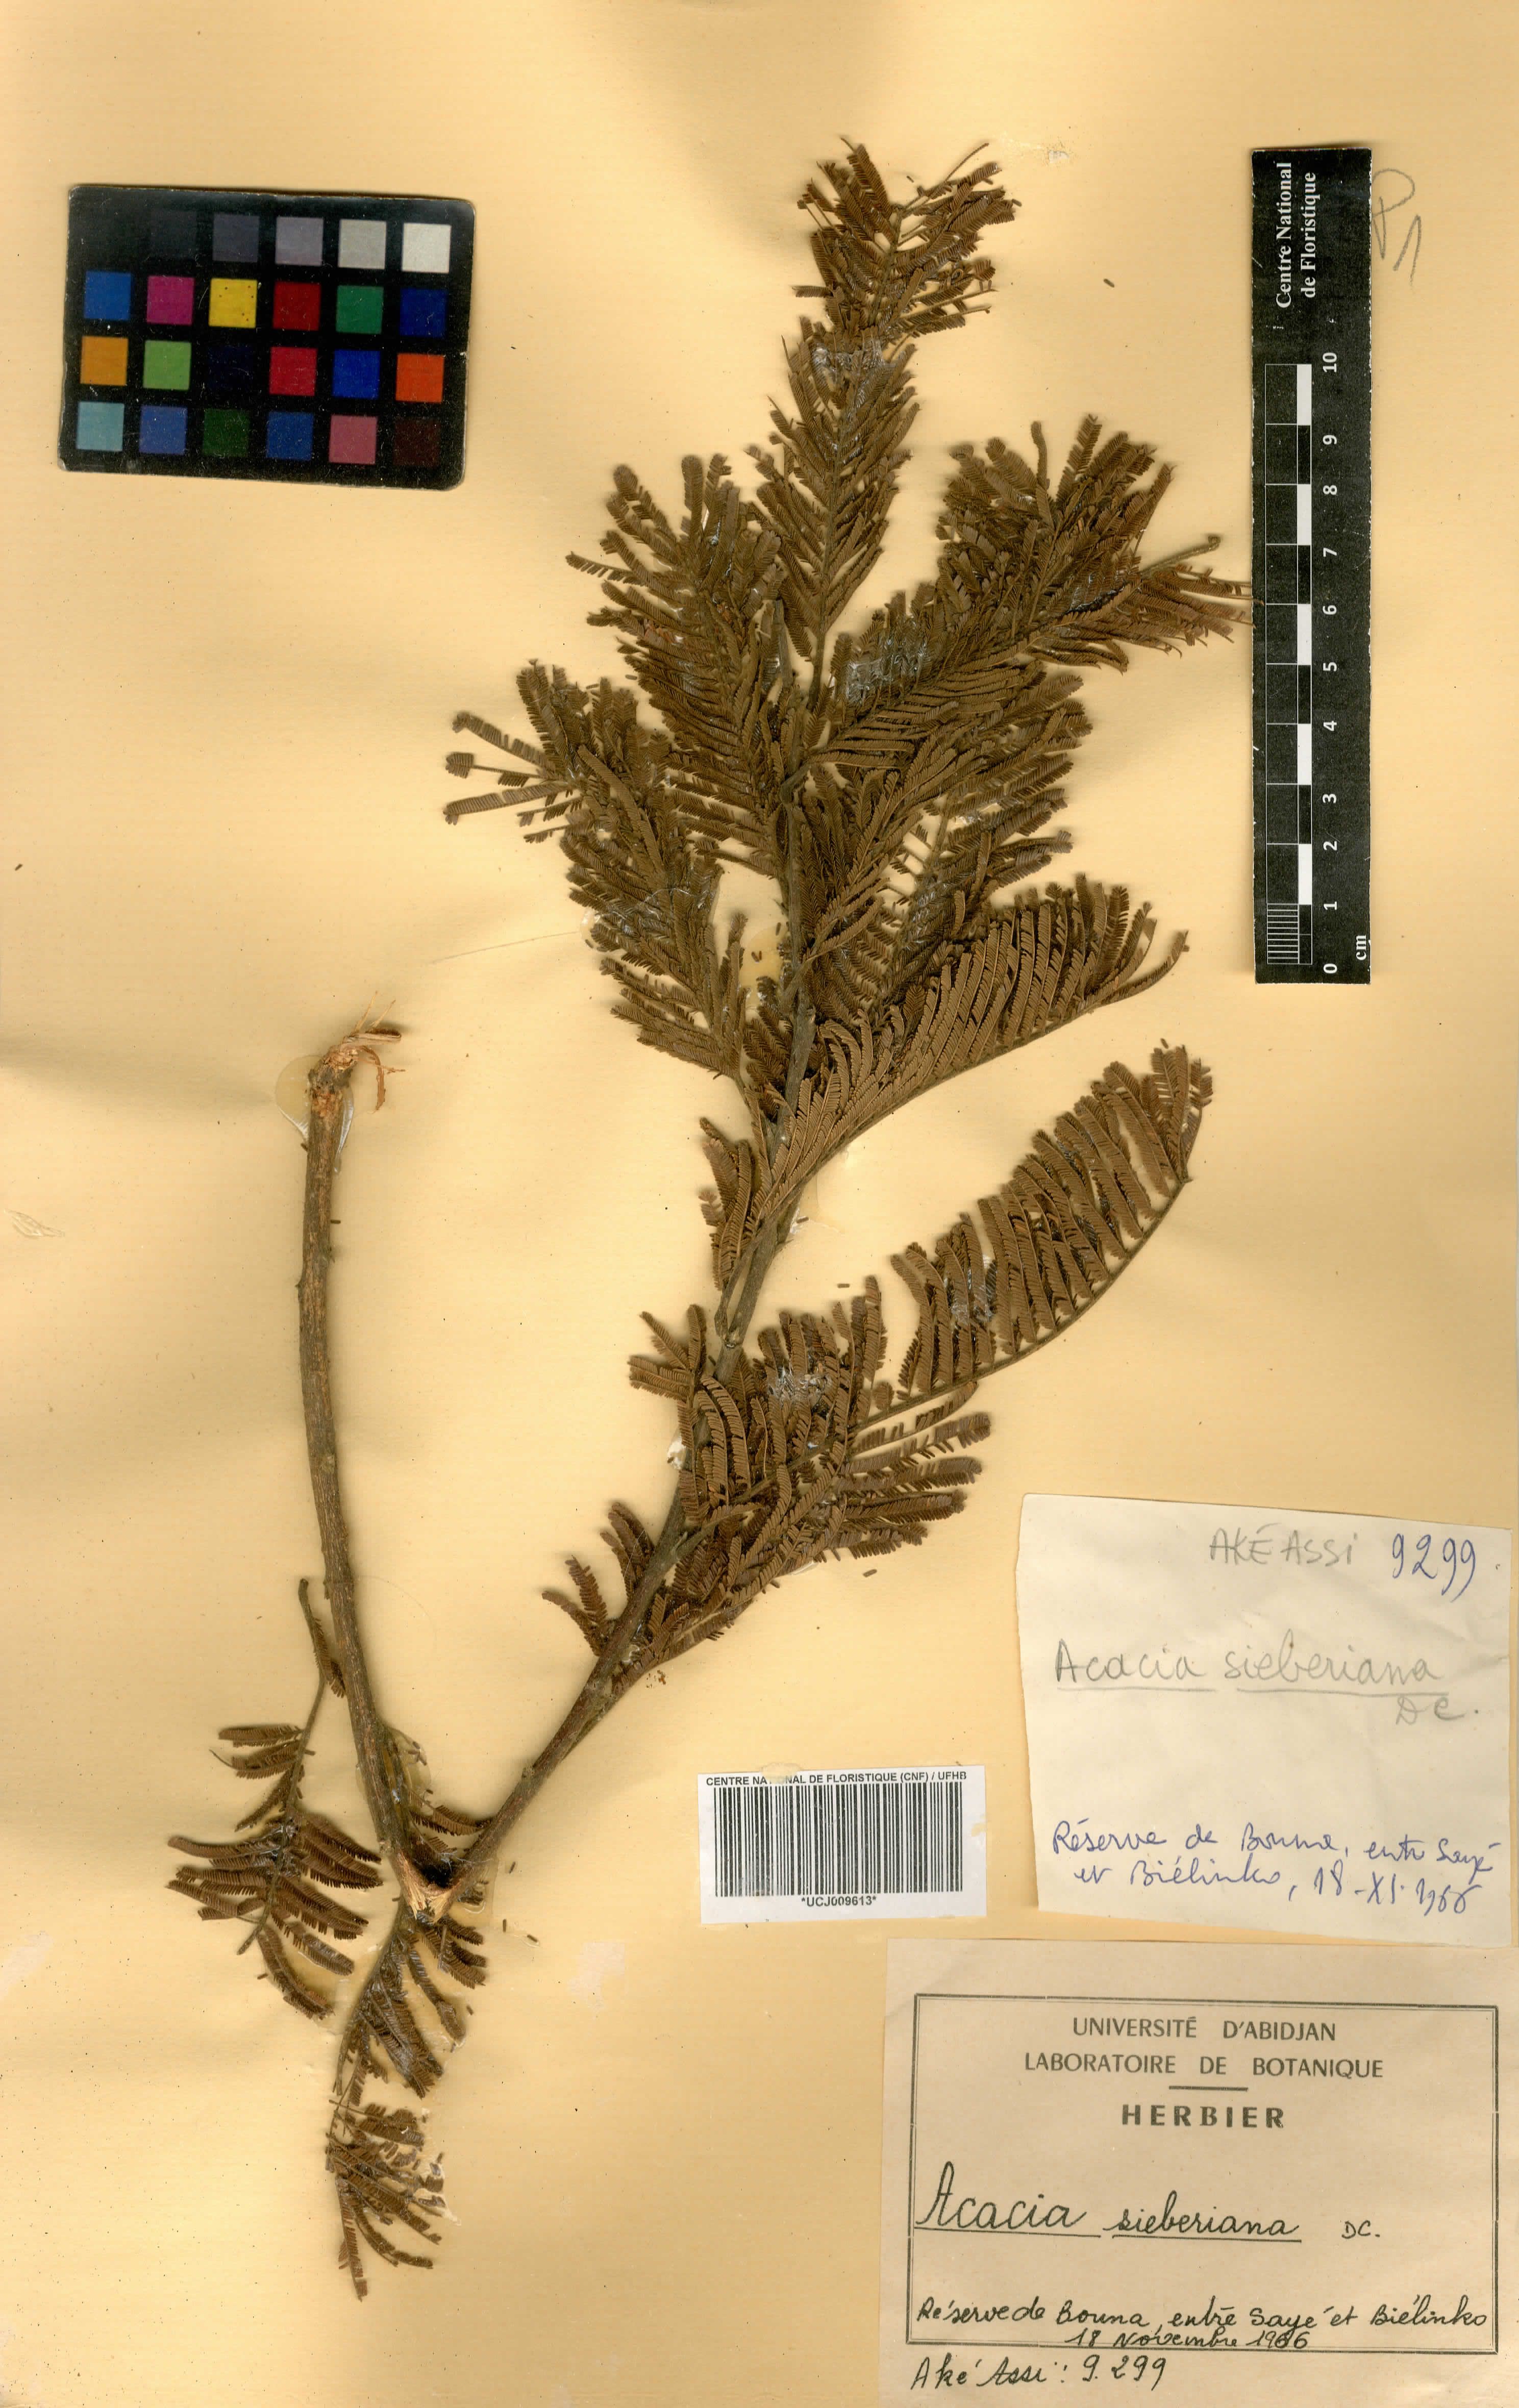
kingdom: Plantae
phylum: Tracheophyta
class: Magnoliopsida
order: Fabales
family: Fabaceae
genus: Vachellia
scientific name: Vachellia sieberiana
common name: Flat-topped thorn
